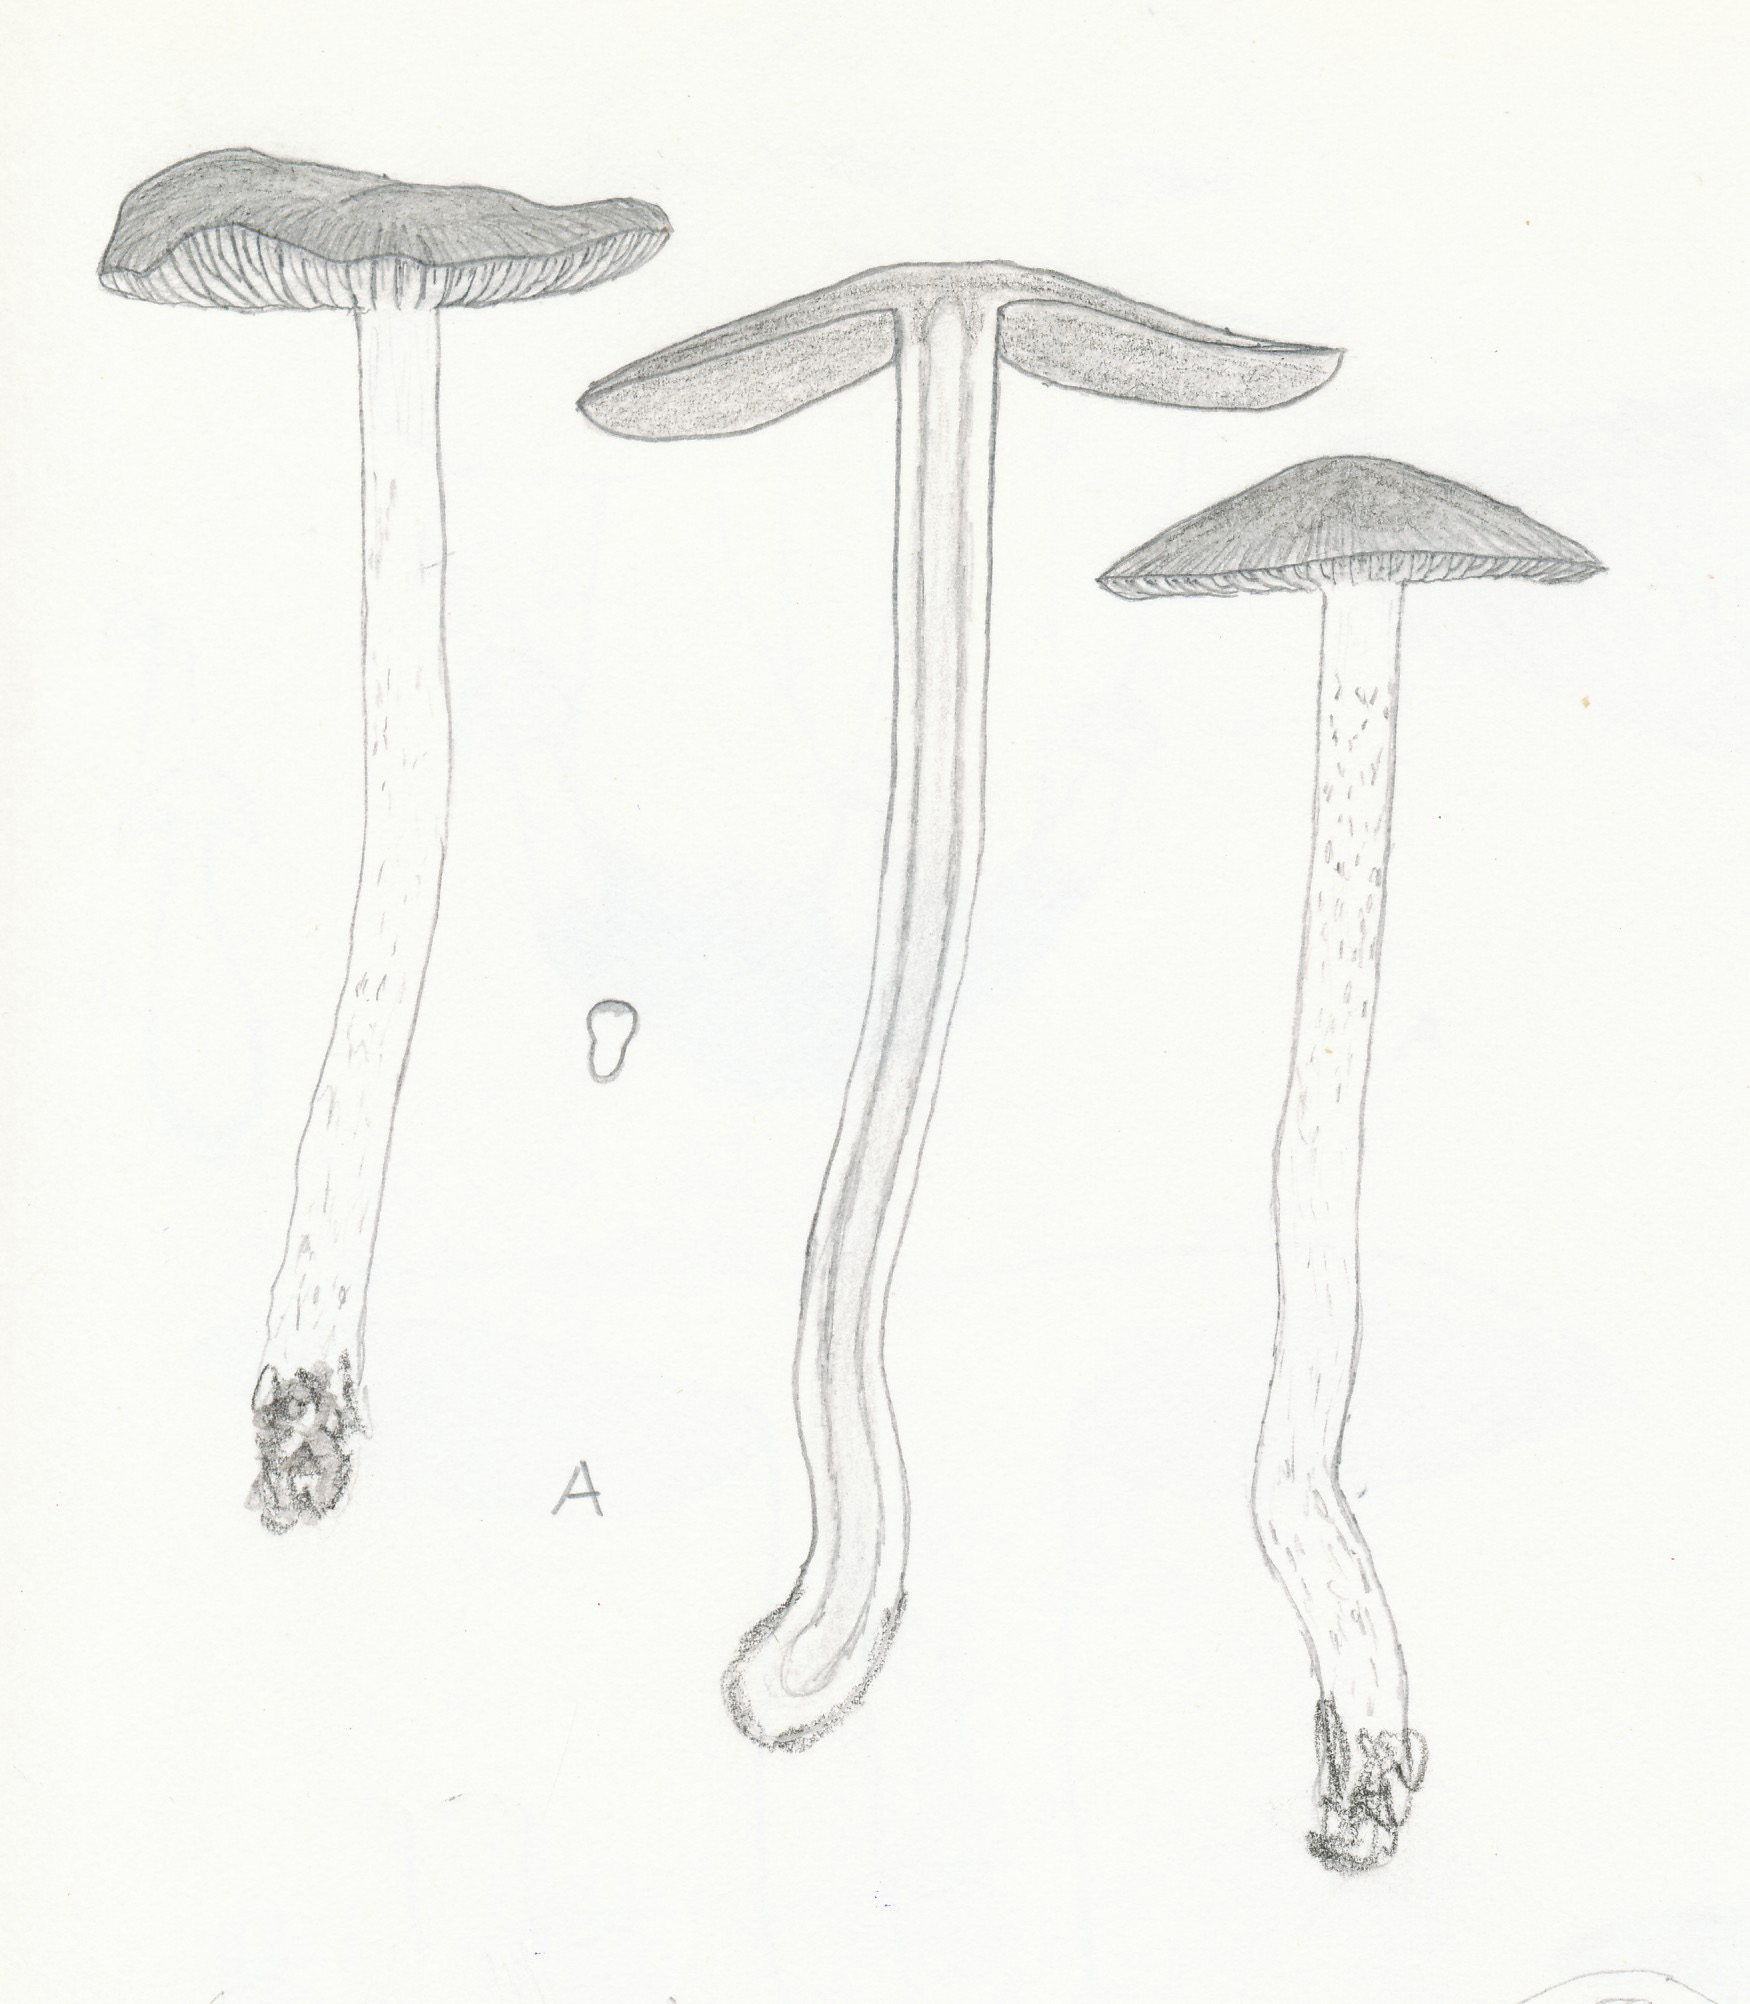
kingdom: Fungi
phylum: Basidiomycota
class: Agaricomycetes
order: Agaricales
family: Psathyrellaceae
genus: Psathyrella
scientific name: Psathyrella pseudocasca
